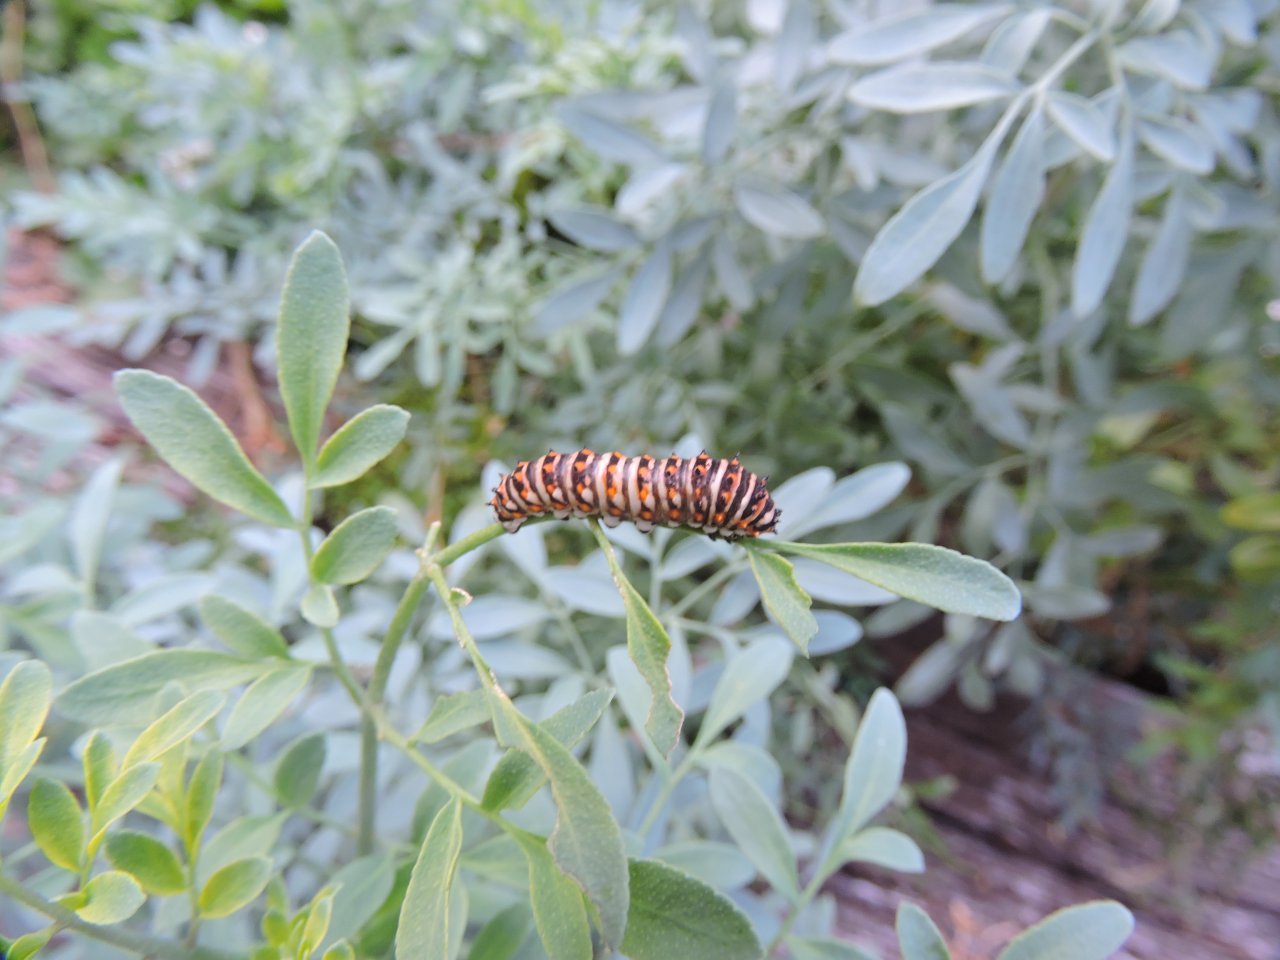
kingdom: Animalia
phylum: Arthropoda
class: Insecta
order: Lepidoptera
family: Papilionidae
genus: Papilio
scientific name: Papilio polyxenes
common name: Black Swallowtail
